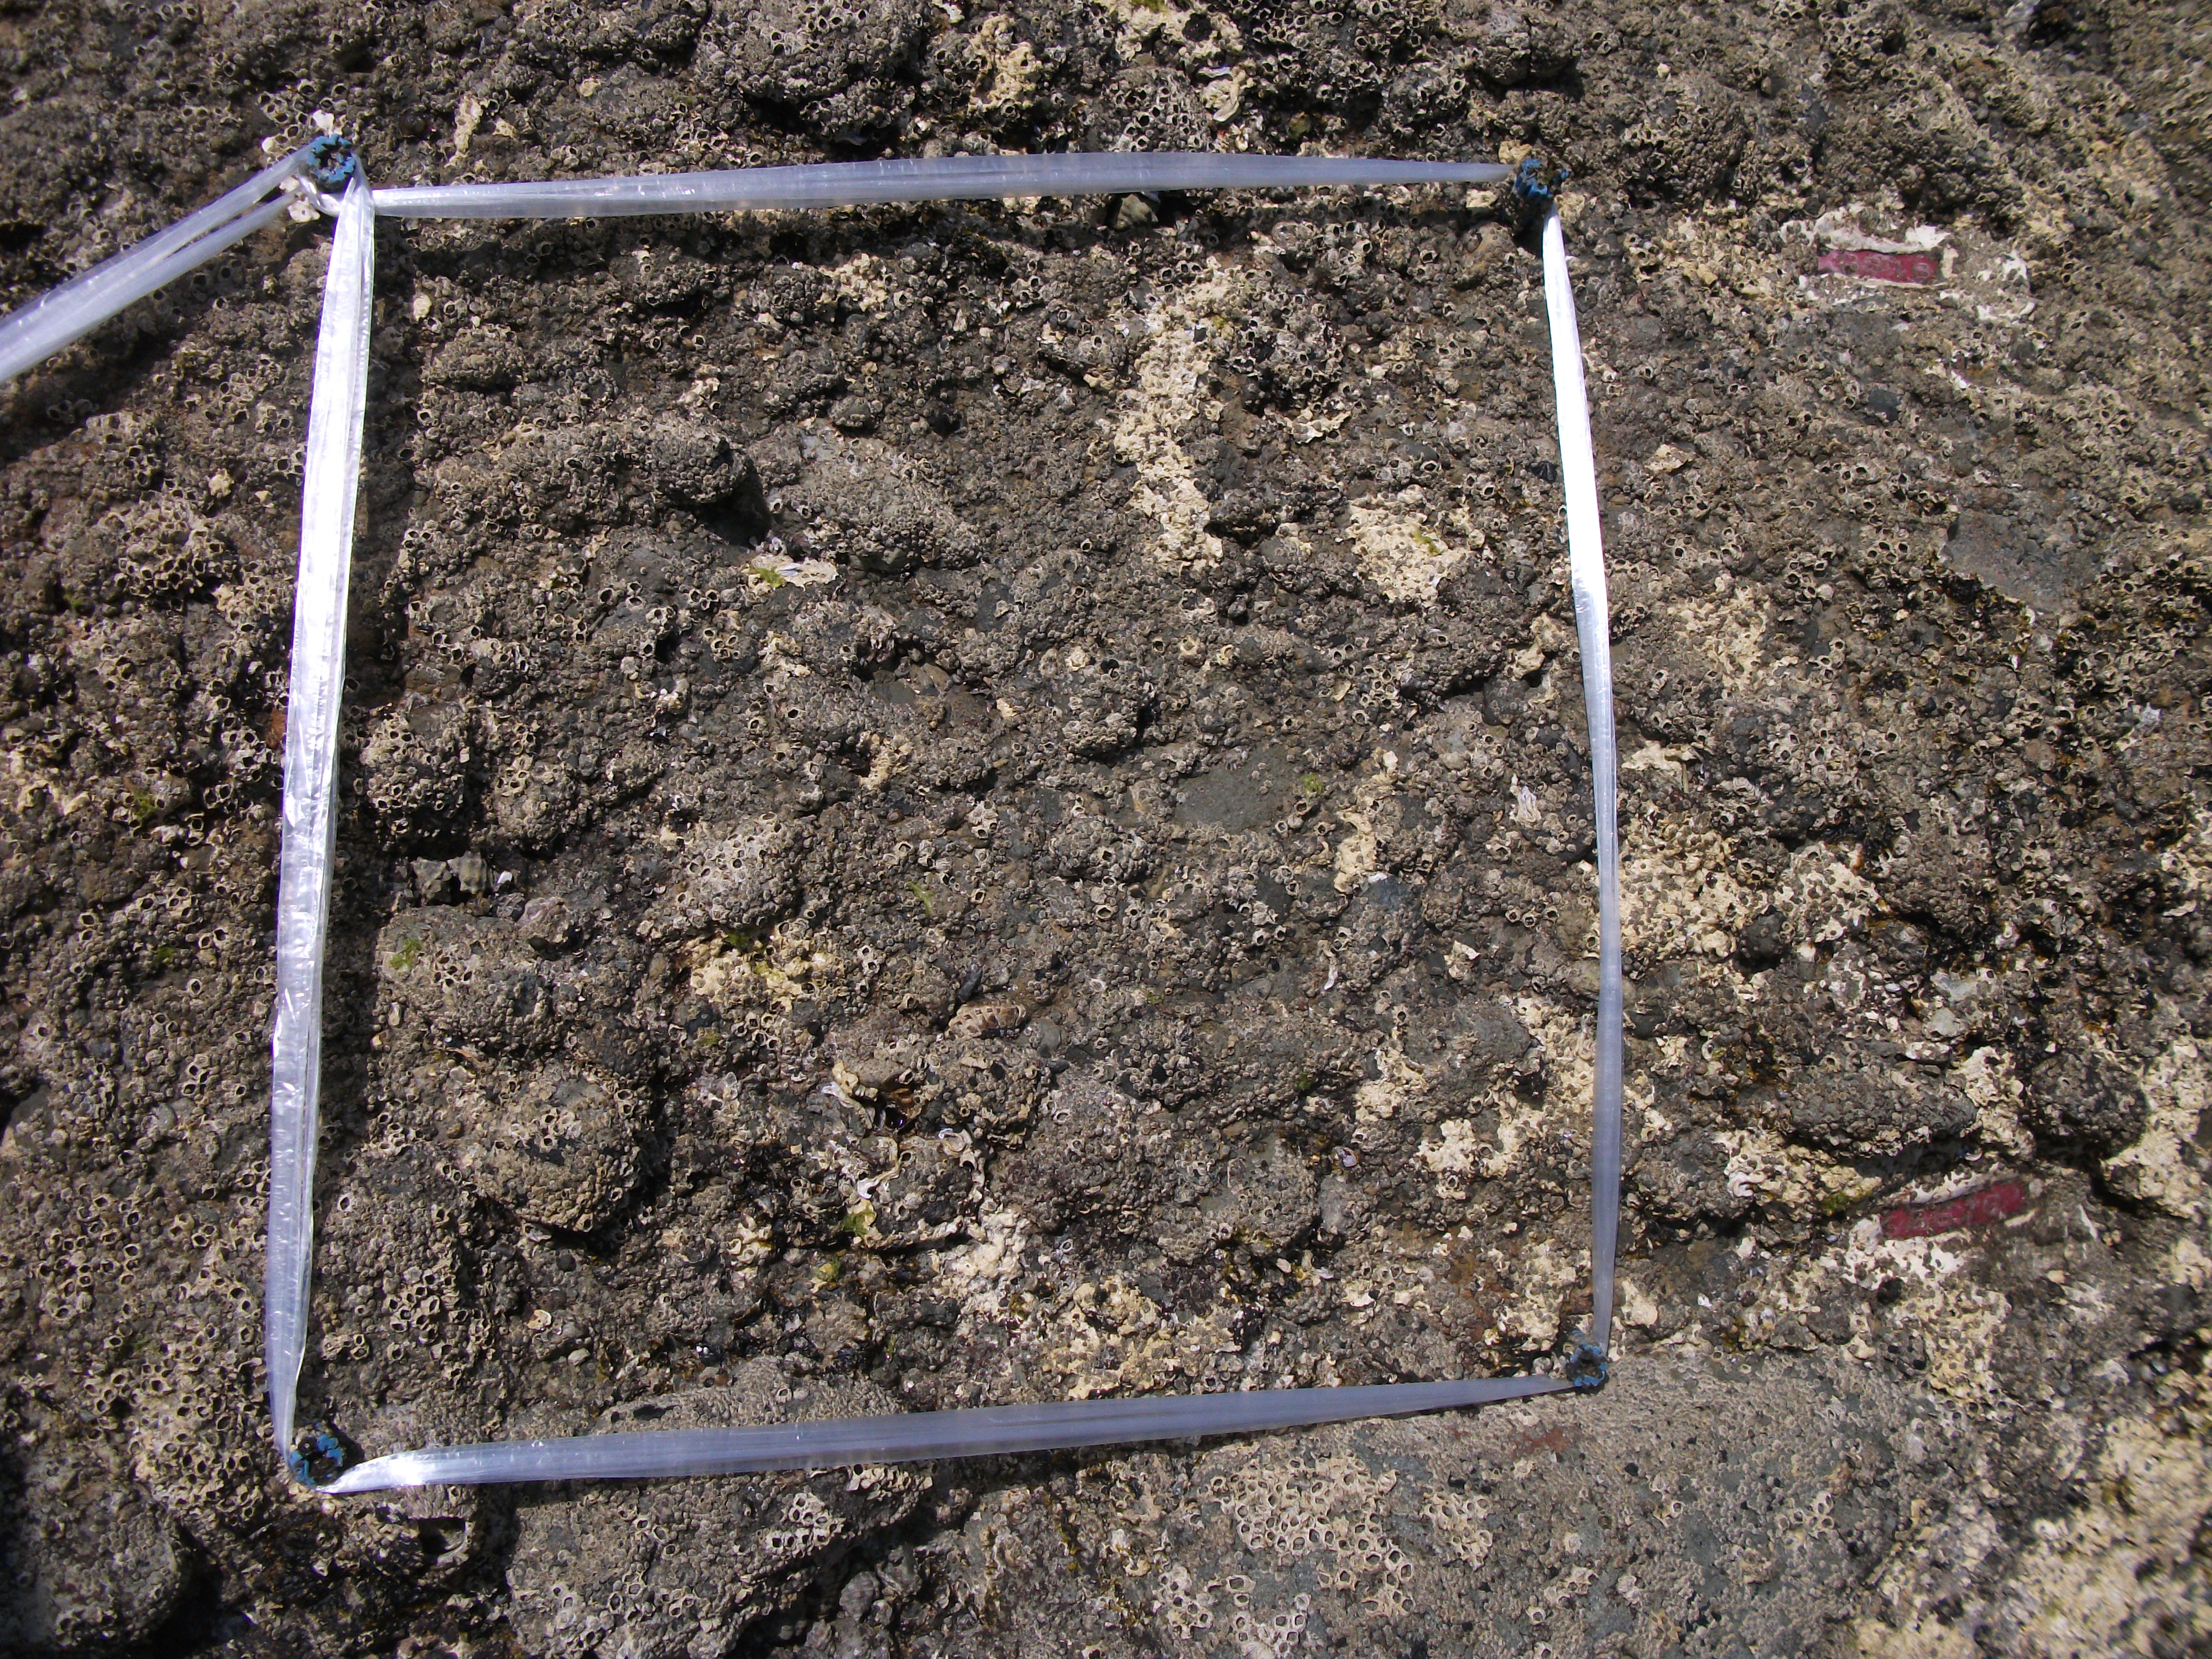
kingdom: Animalia
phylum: Arthropoda
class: Maxillopoda
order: Sessilia
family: Chthamalidae
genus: Chthamalus
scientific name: Chthamalus challengeri
